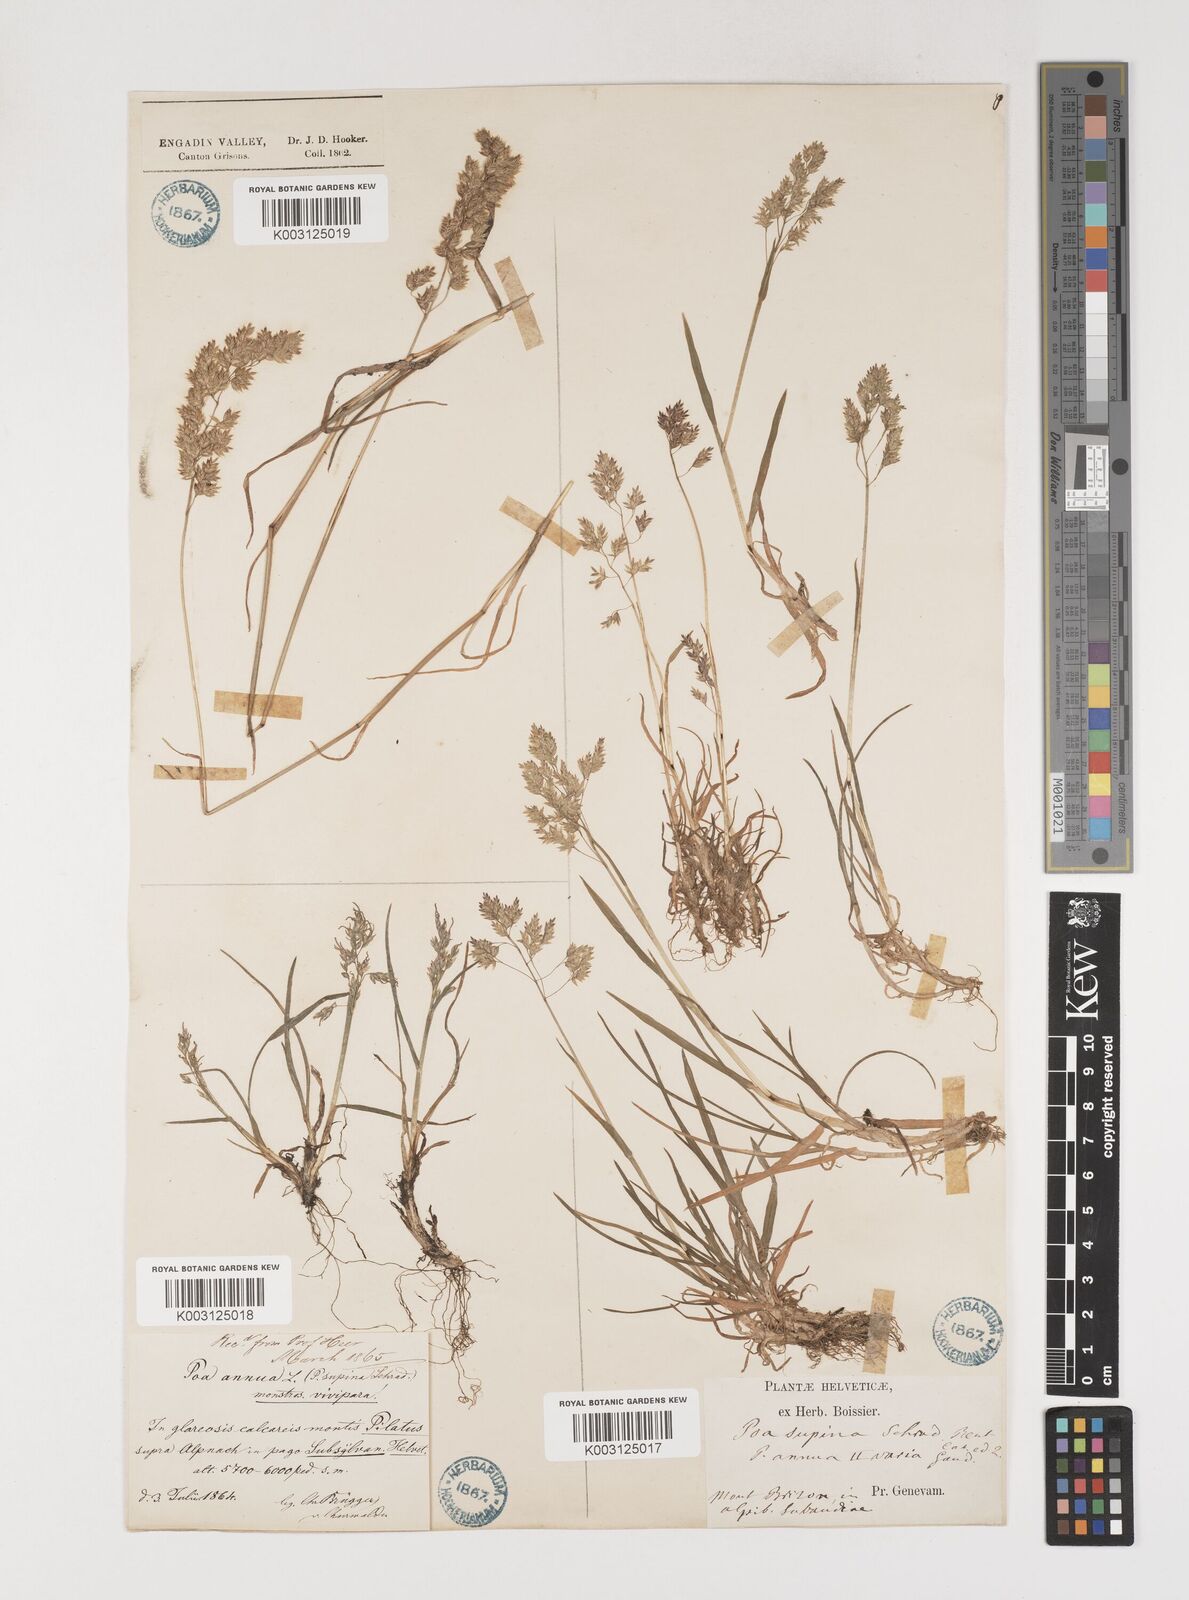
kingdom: Plantae
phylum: Tracheophyta
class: Liliopsida
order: Poales
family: Poaceae
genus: Poa
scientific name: Poa supina
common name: Supina bluegrass
